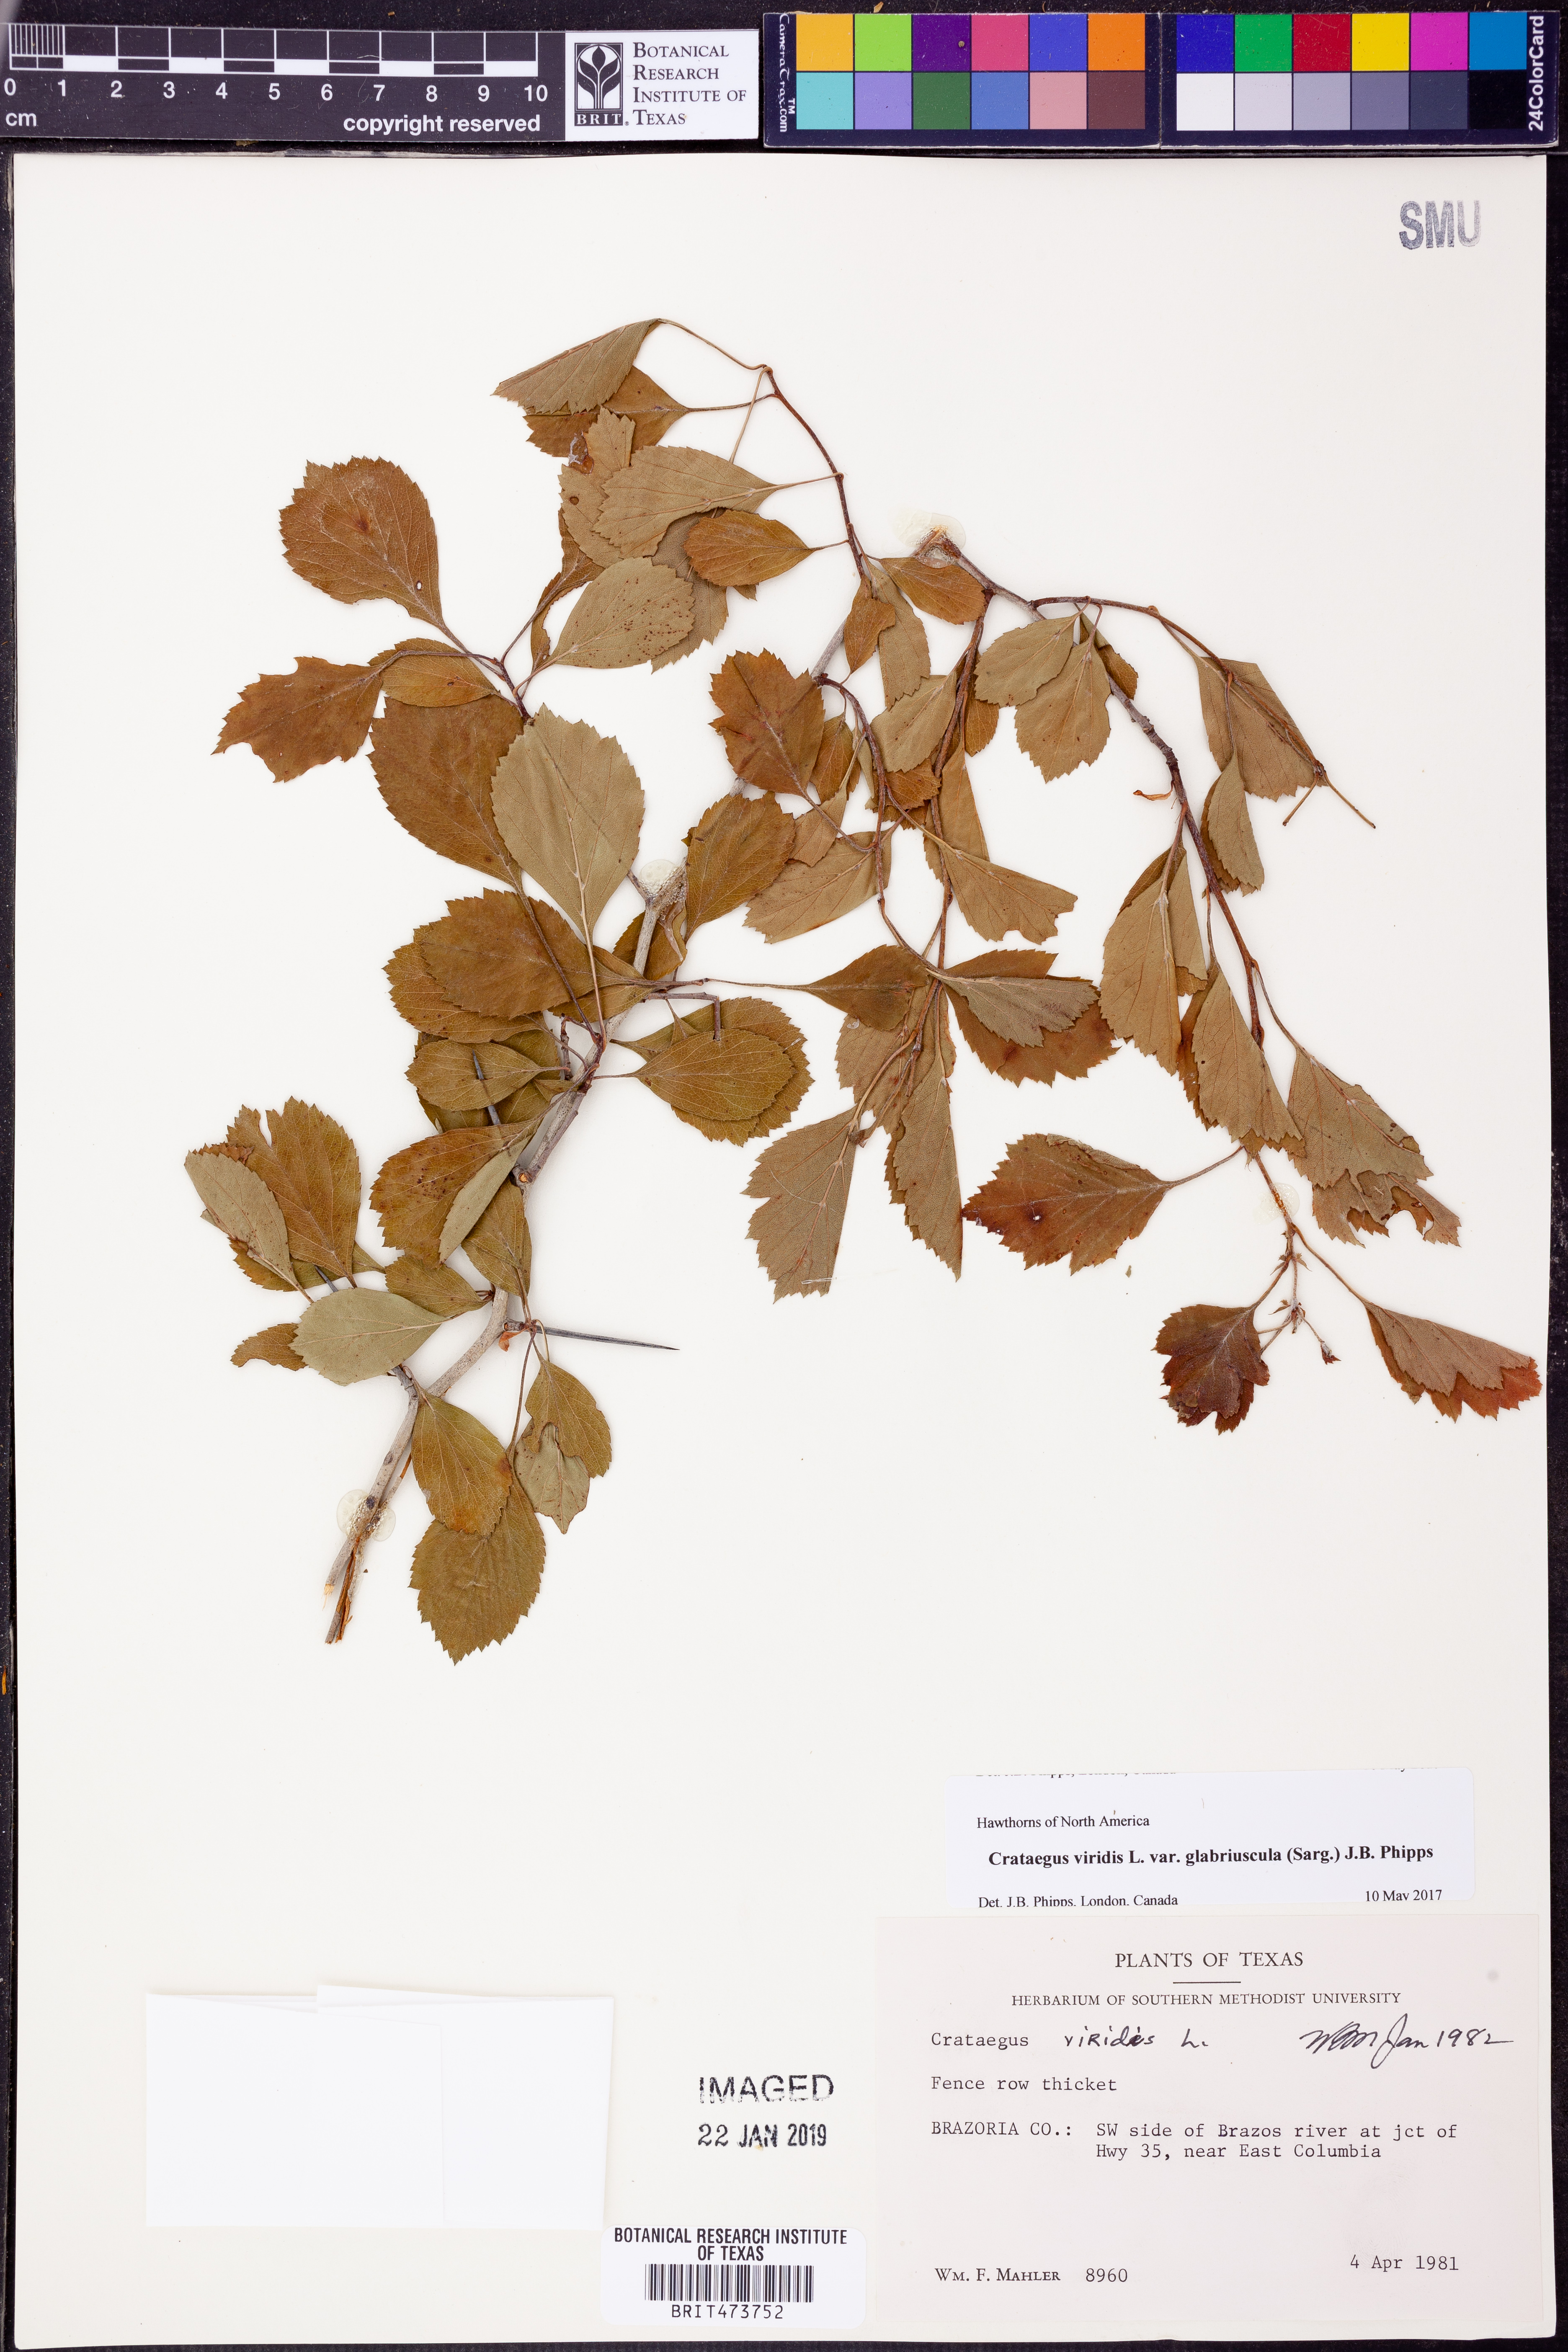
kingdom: Plantae
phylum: Tracheophyta
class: Magnoliopsida
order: Rosales
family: Rosaceae
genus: Crataegus
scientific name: Crataegus viridis
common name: Southernthorn
